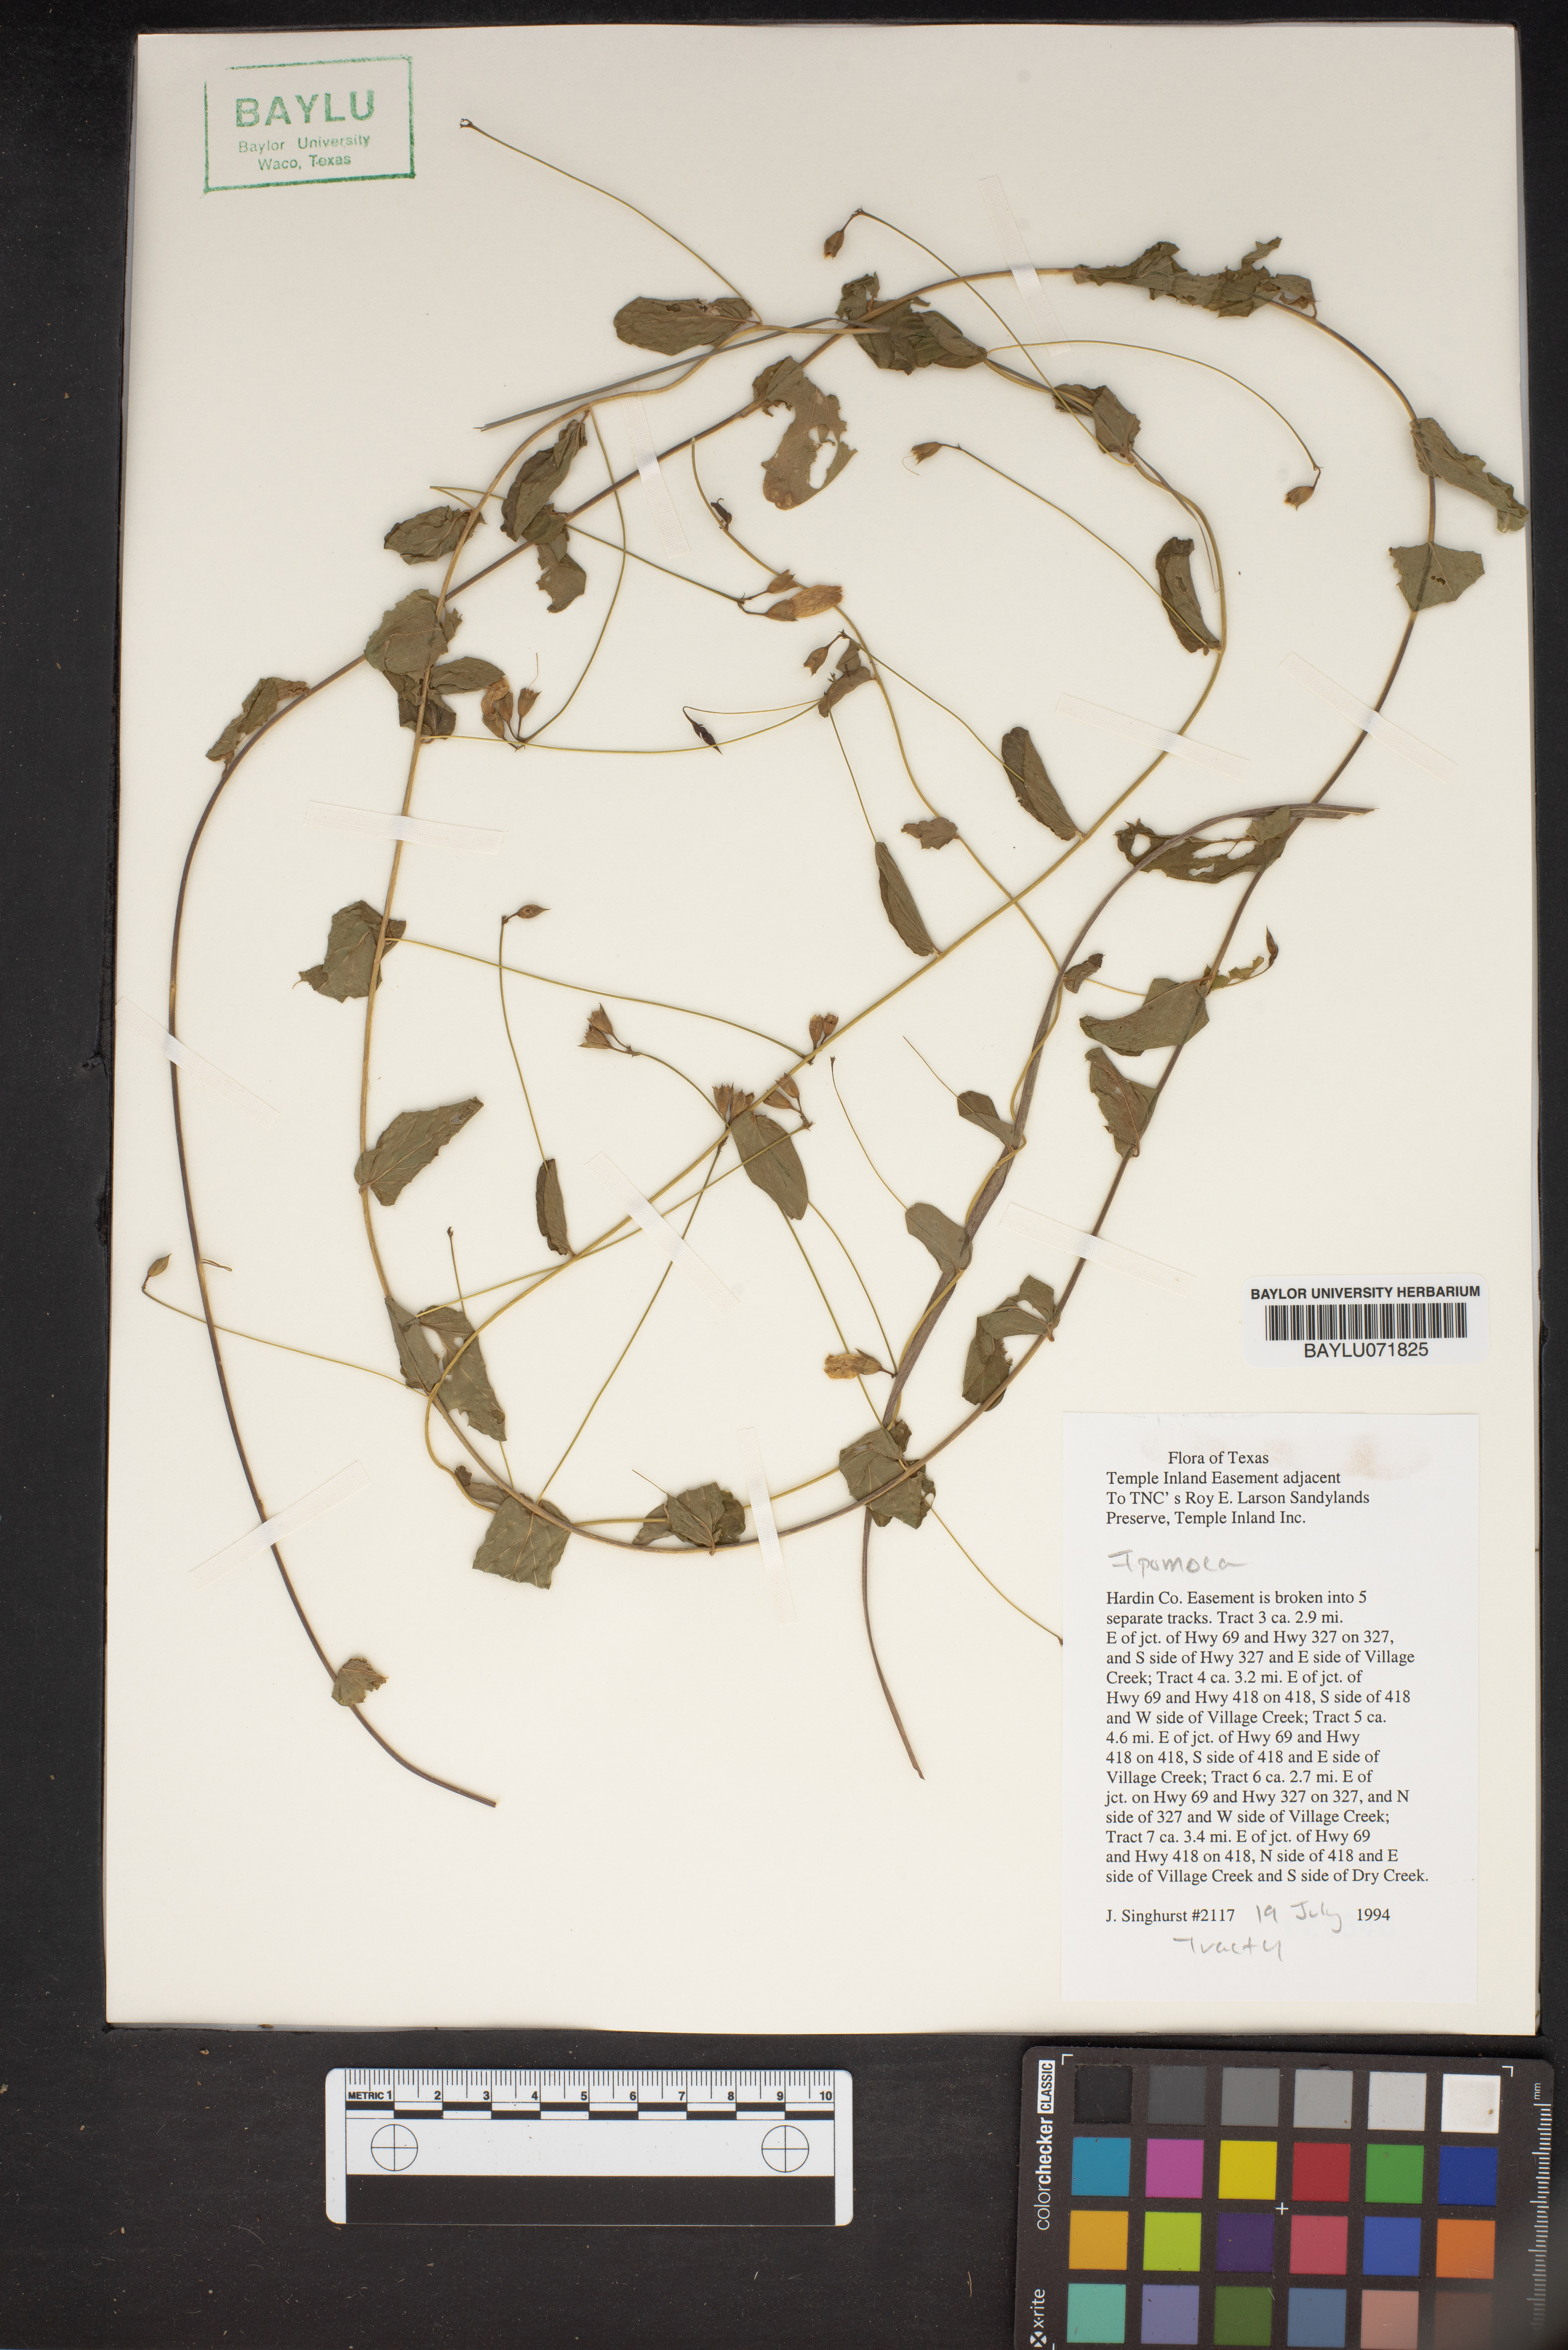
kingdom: Plantae
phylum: Tracheophyta
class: Magnoliopsida
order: Solanales
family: Convolvulaceae
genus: Ipomoea
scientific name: Ipomoea
